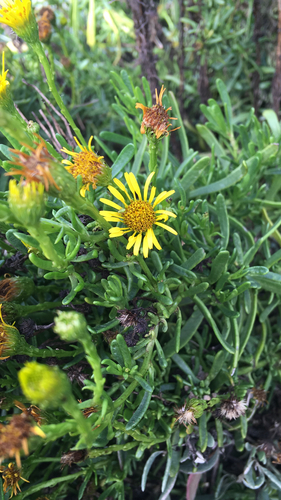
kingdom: Plantae
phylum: Tracheophyta
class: Magnoliopsida
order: Asterales
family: Asteraceae
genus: Limbarda
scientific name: Limbarda crithmoides
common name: Golden samphire
